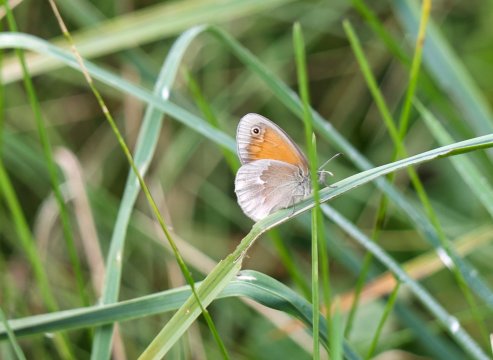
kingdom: Animalia
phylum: Arthropoda
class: Insecta
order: Lepidoptera
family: Nymphalidae
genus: Coenonympha
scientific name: Coenonympha tullia
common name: Large Heath
